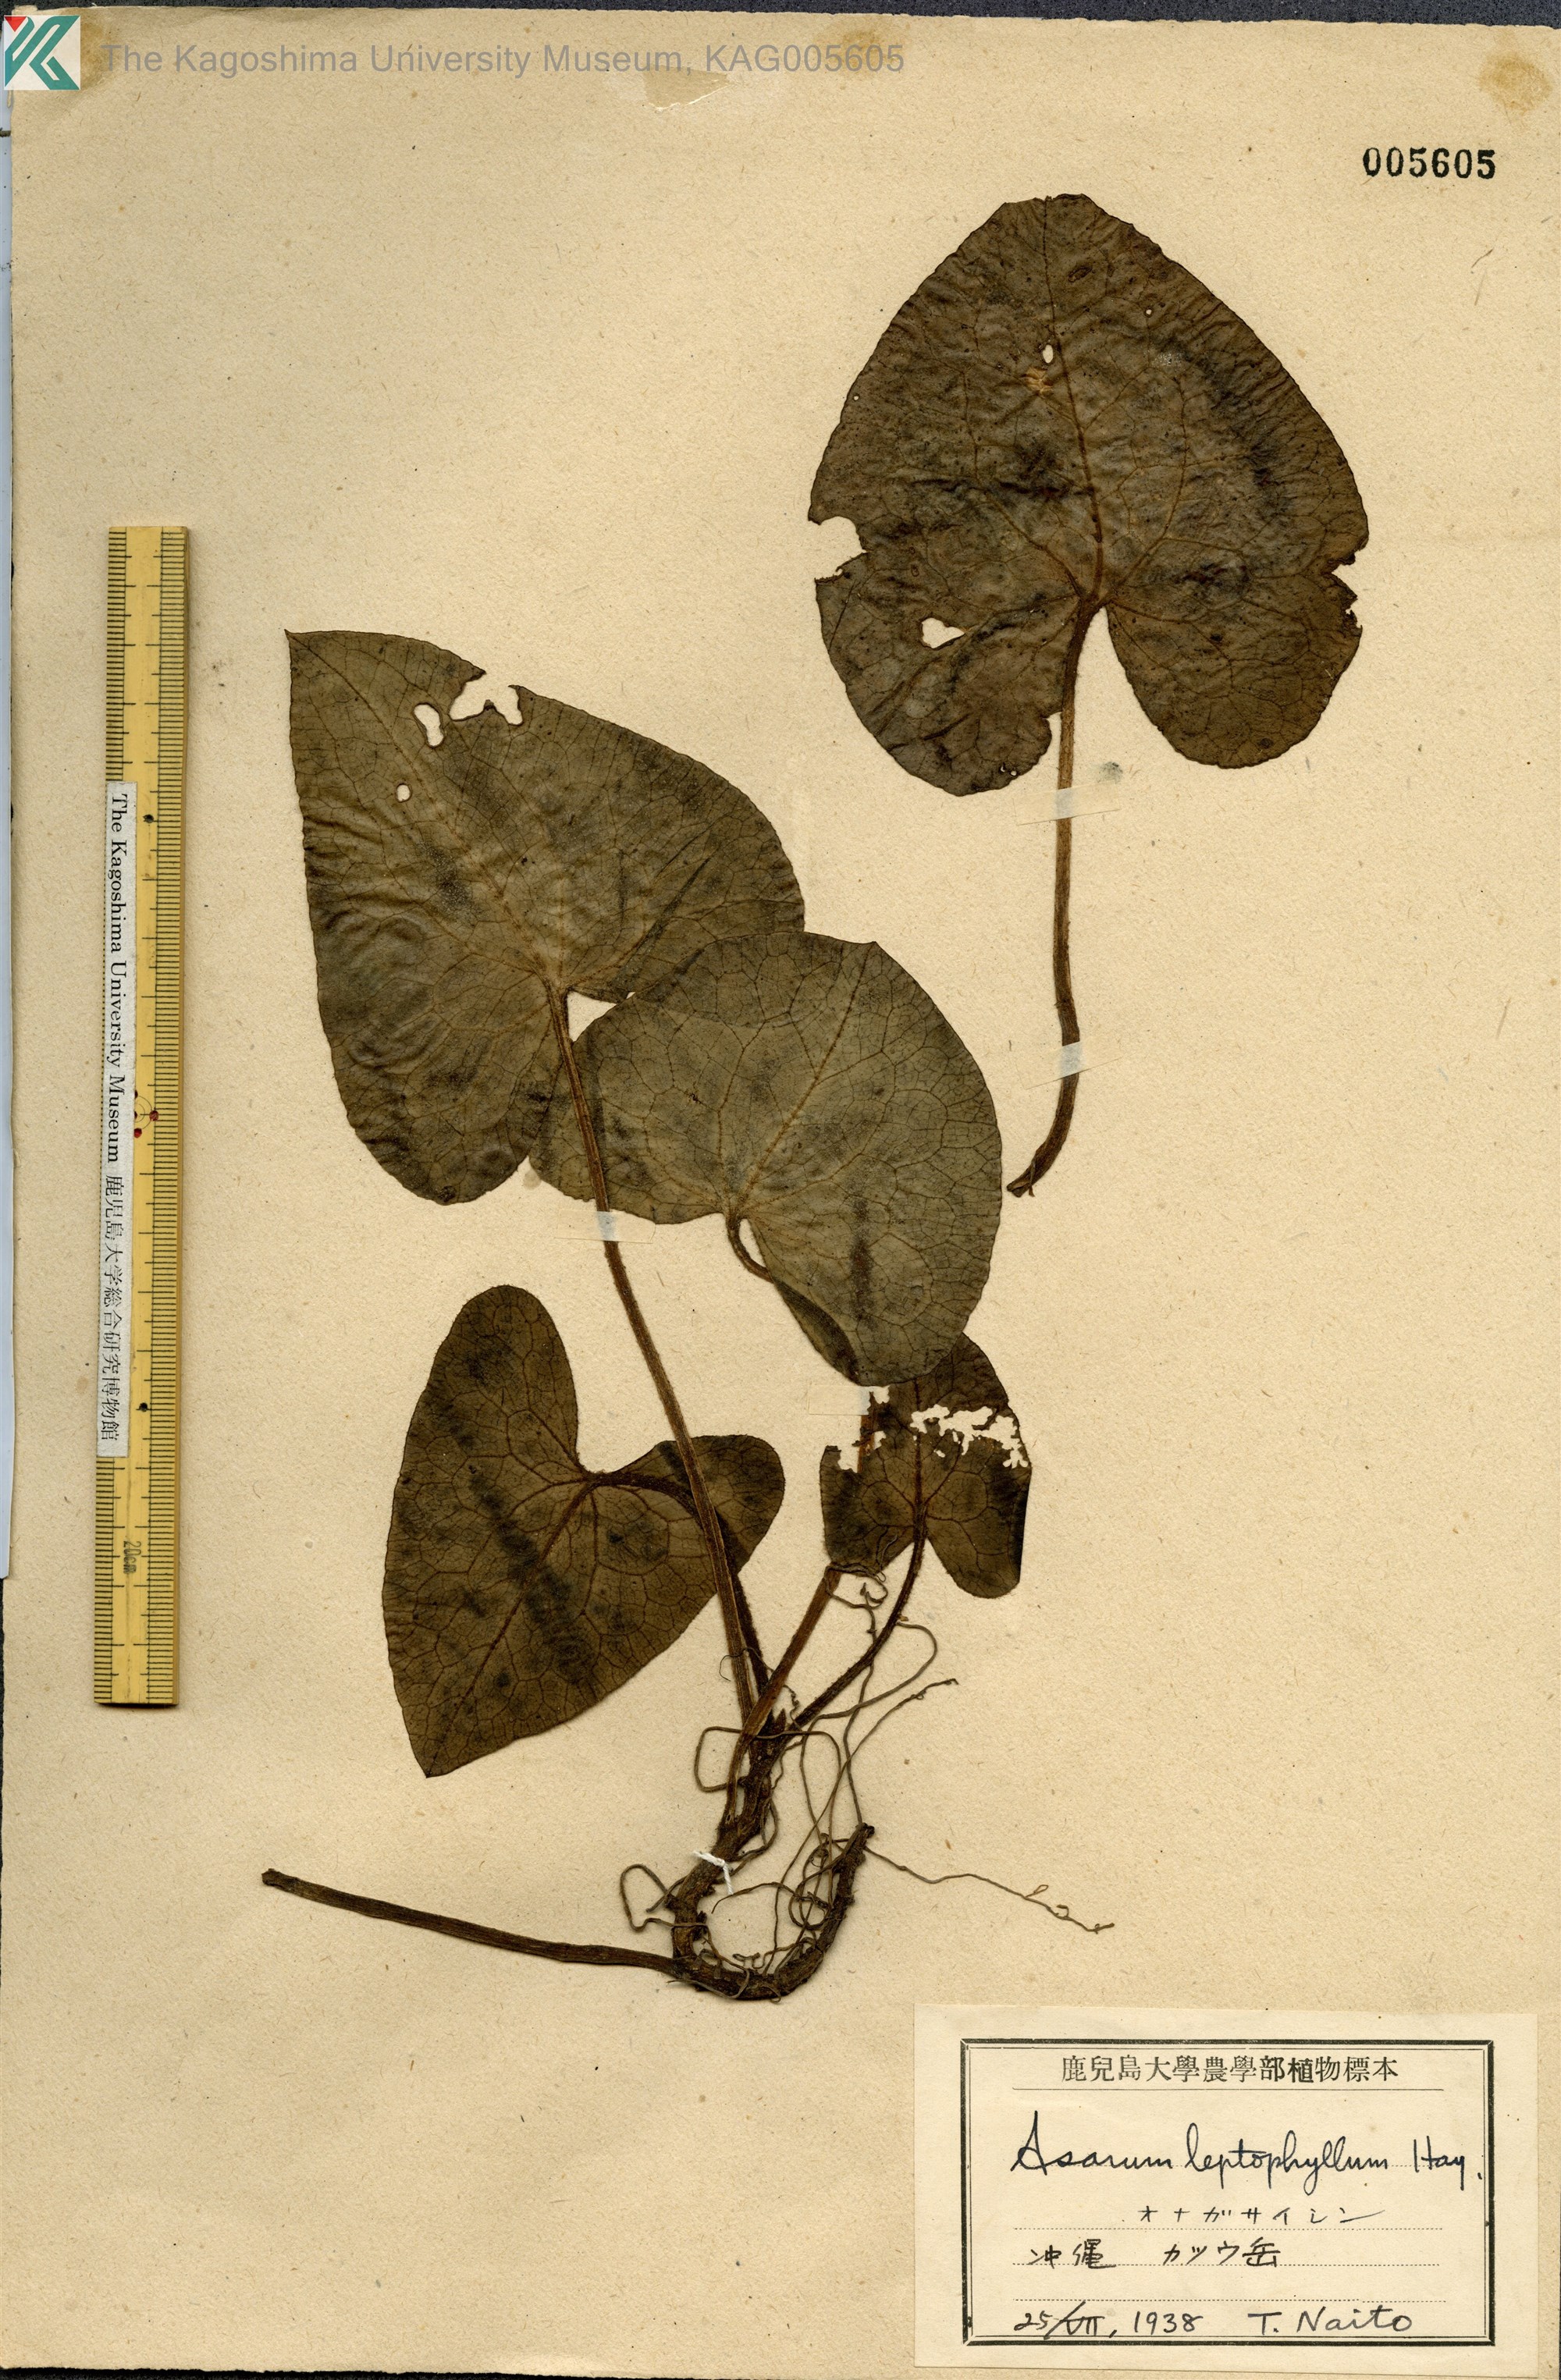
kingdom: Plantae
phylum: Tracheophyta
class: Magnoliopsida
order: Piperales
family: Aristolochiaceae
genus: Asarum
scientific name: Asarum caudigerum
